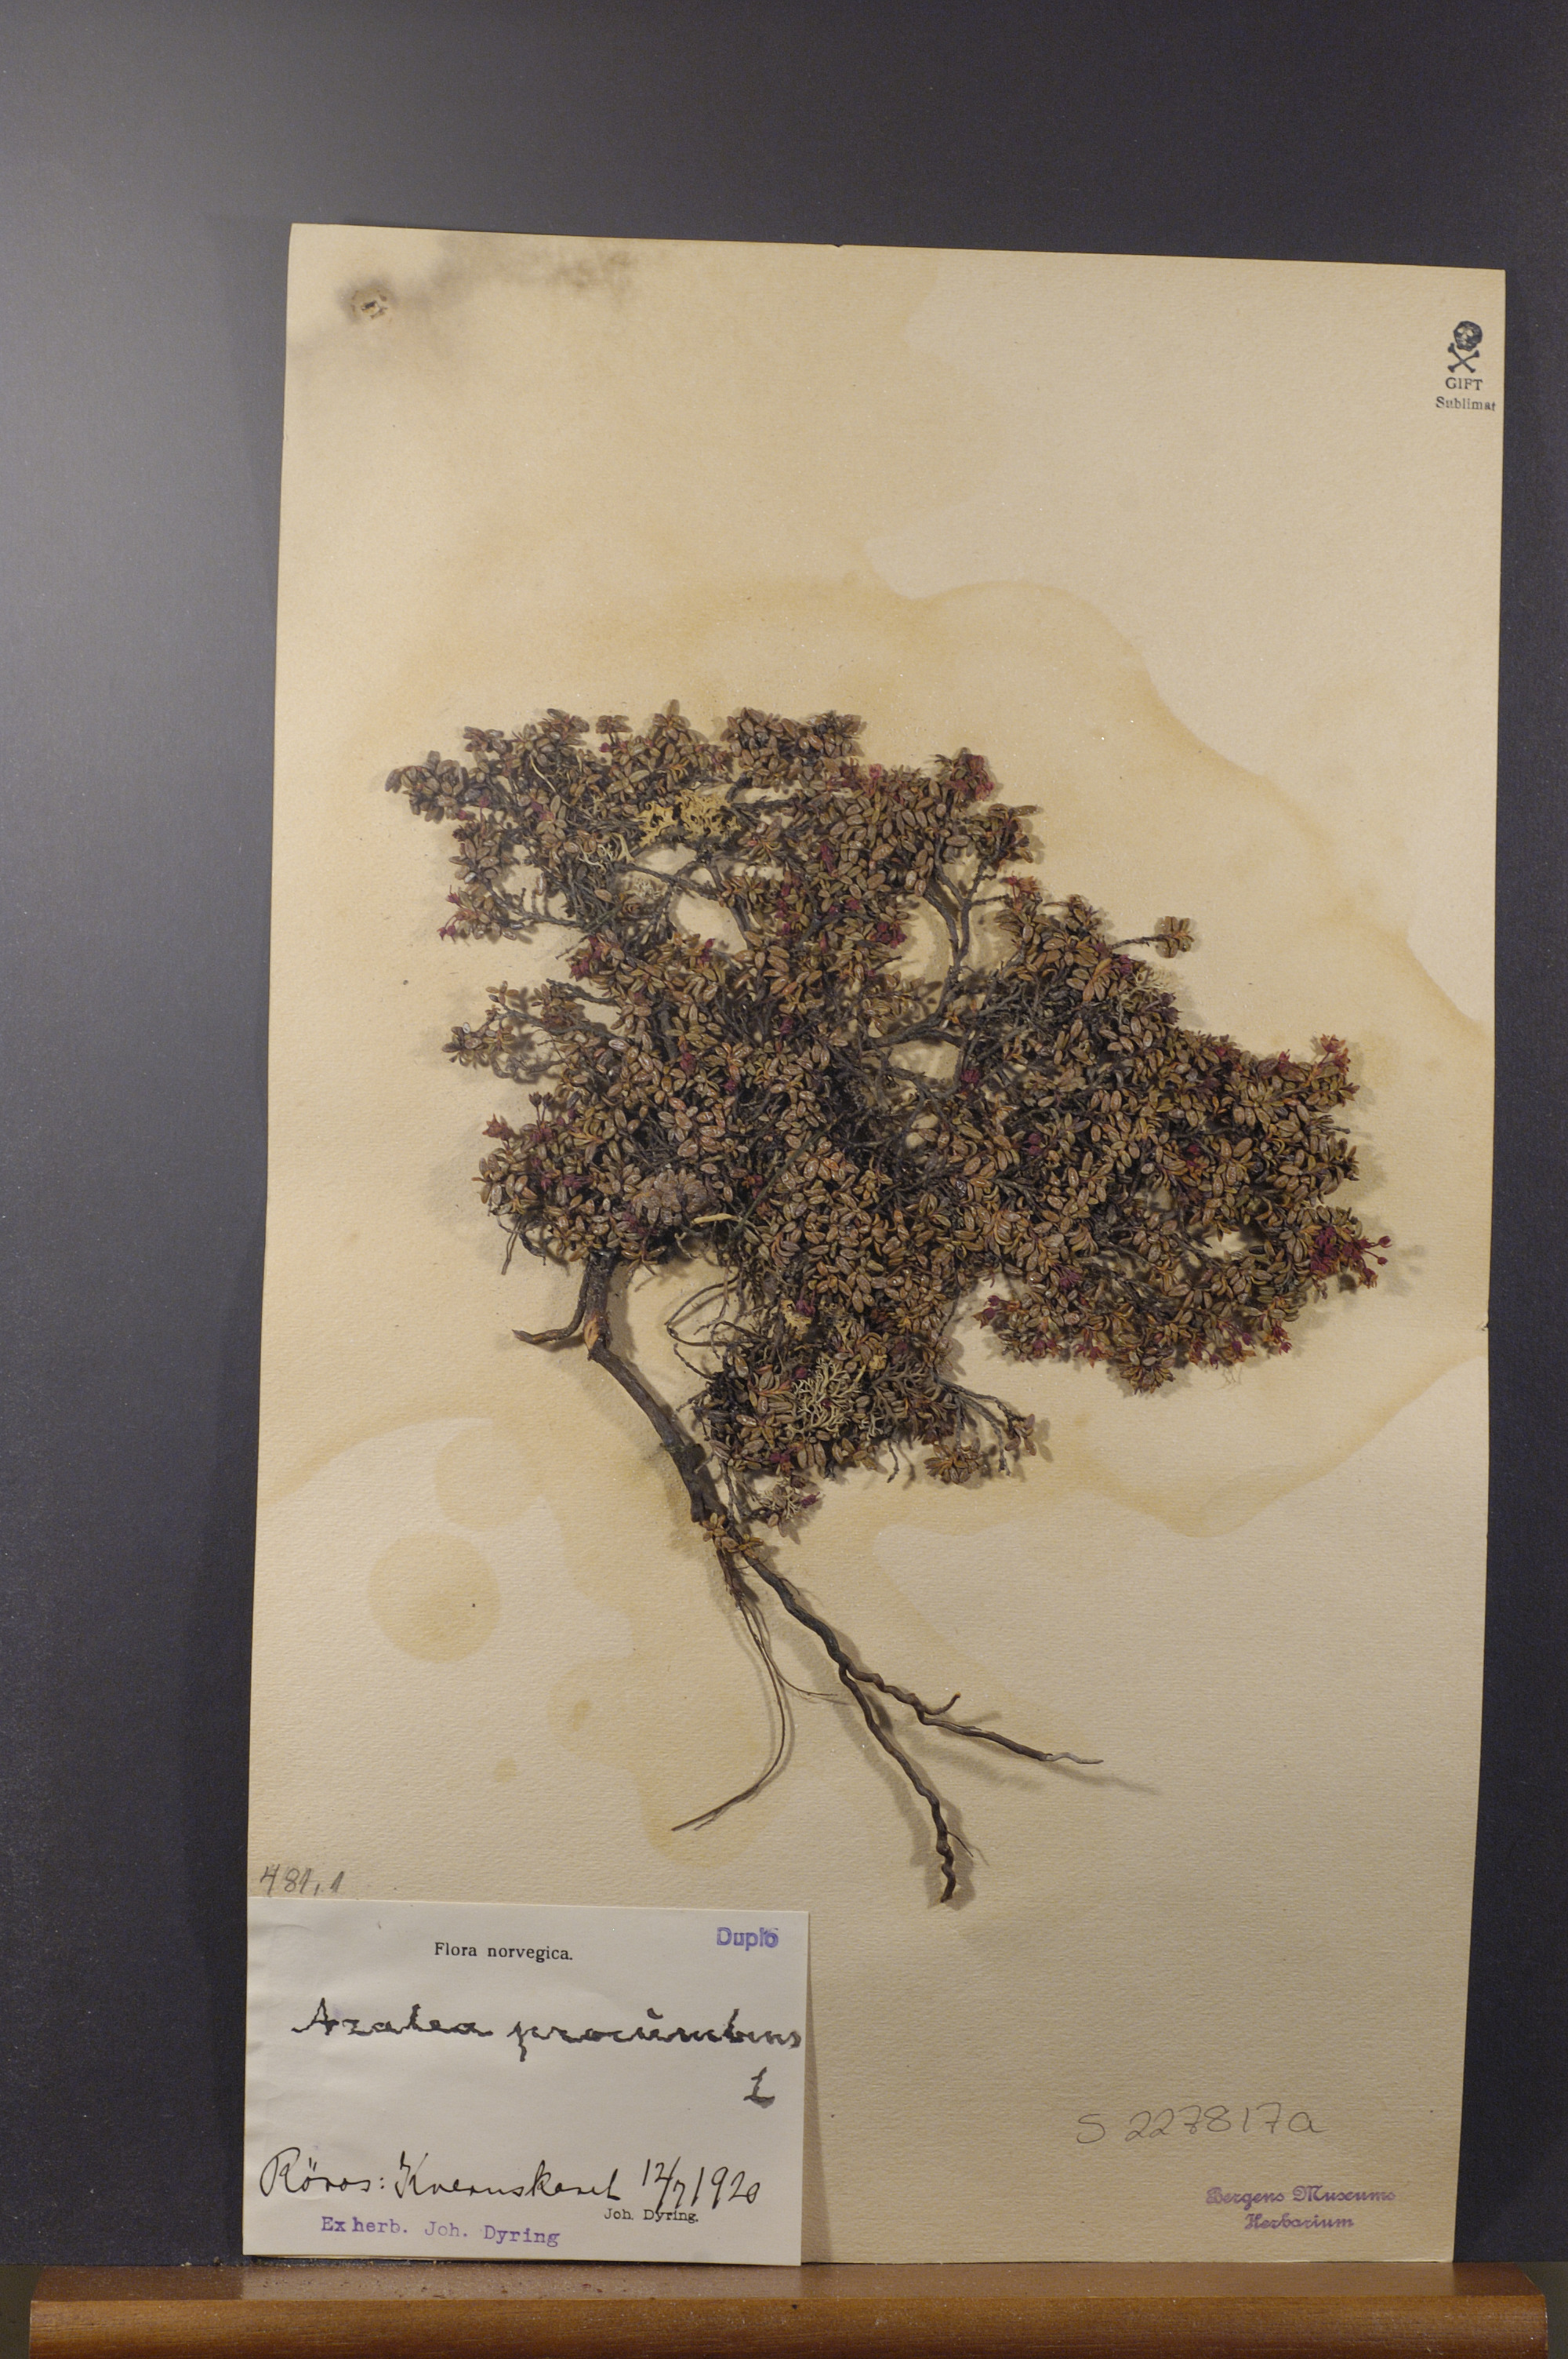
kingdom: Plantae
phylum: Tracheophyta
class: Magnoliopsida
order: Ericales
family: Ericaceae
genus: Kalmia
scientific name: Kalmia procumbens
